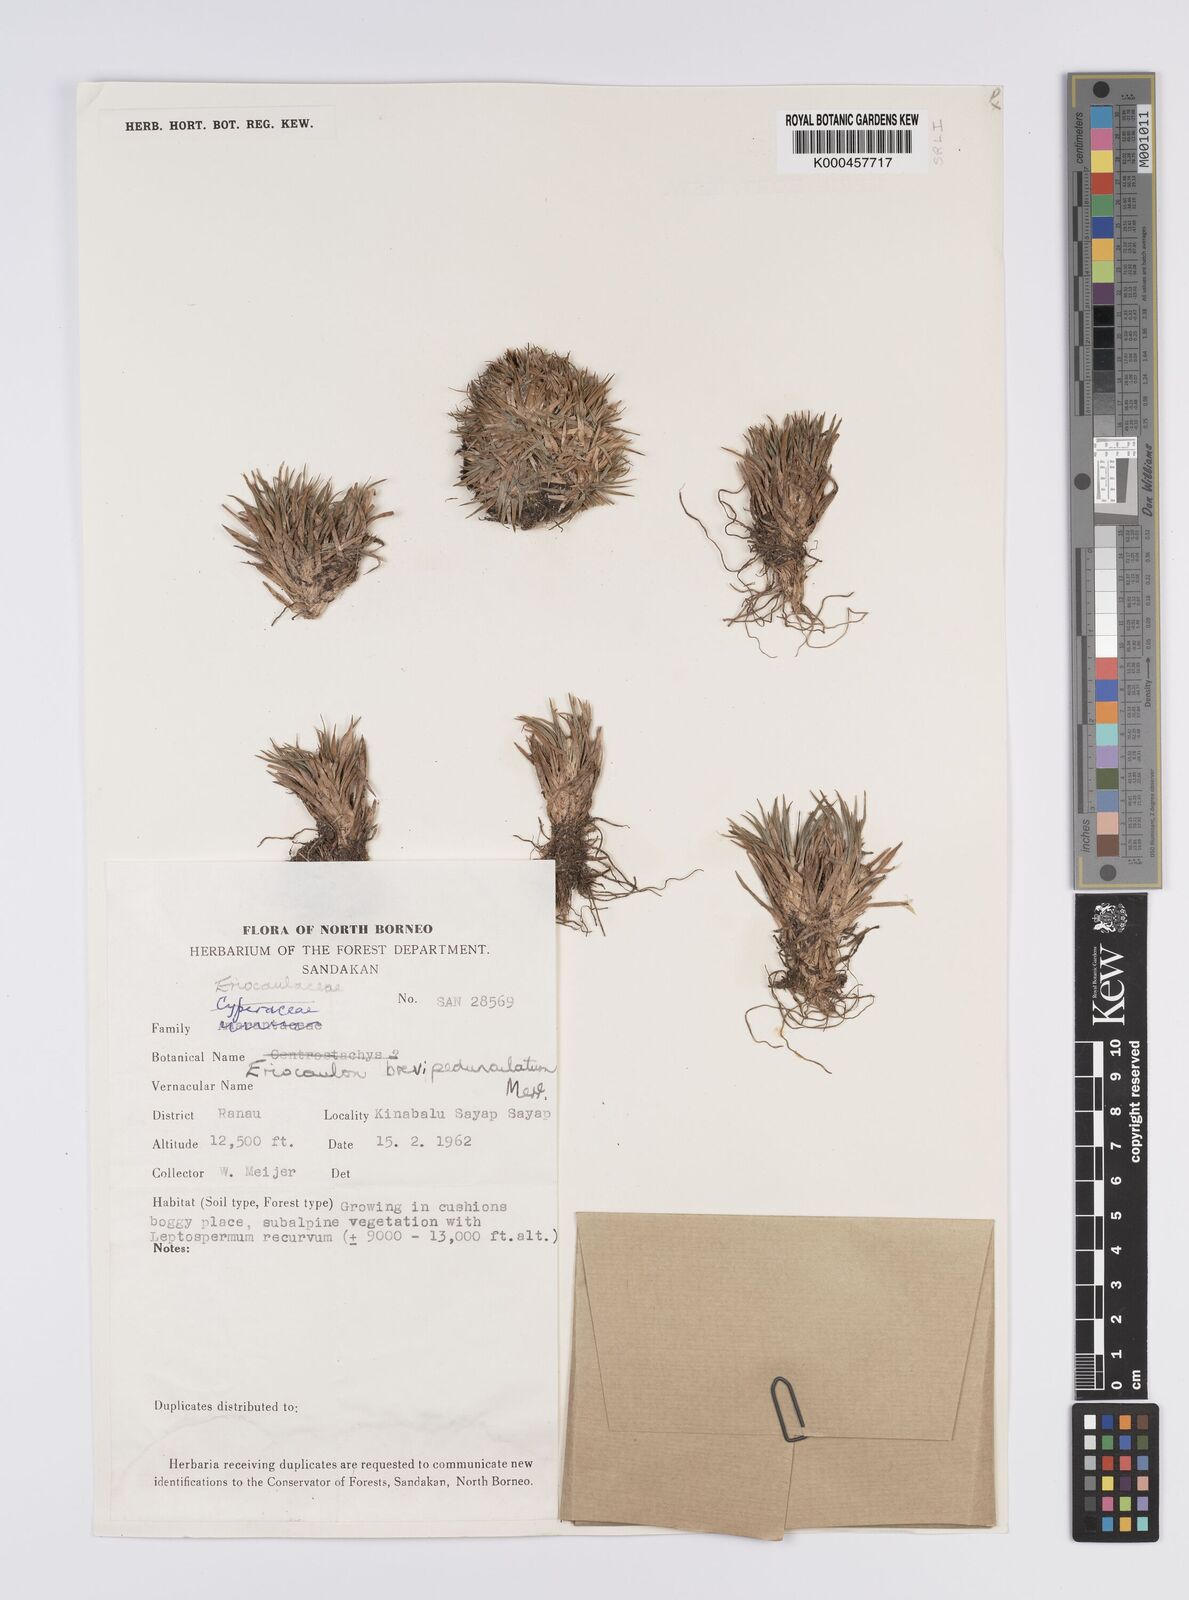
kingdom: Plantae
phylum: Tracheophyta
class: Liliopsida
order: Poales
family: Eriocaulaceae
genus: Eriocaulon
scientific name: Eriocaulon brevipedunculatum
